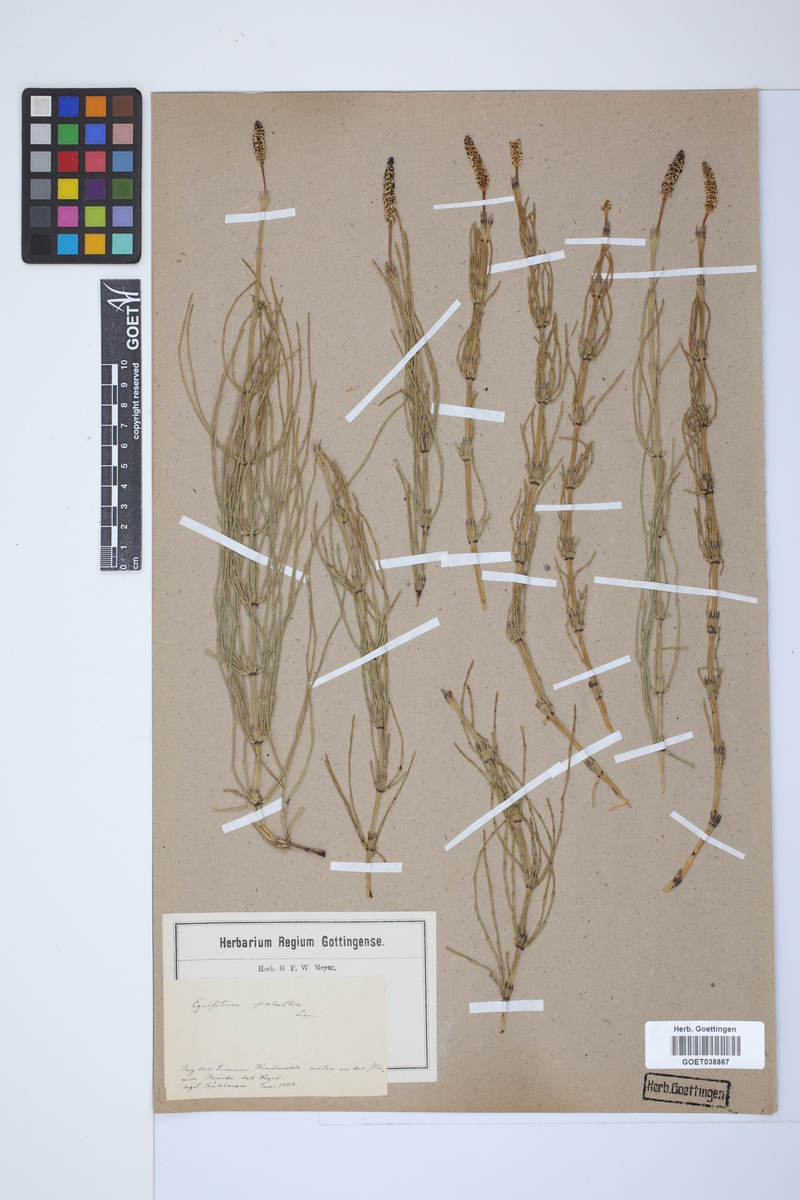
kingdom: Plantae
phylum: Tracheophyta
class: Polypodiopsida
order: Equisetales
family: Equisetaceae
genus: Equisetum
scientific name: Equisetum palustre
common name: Marsh horsetail
